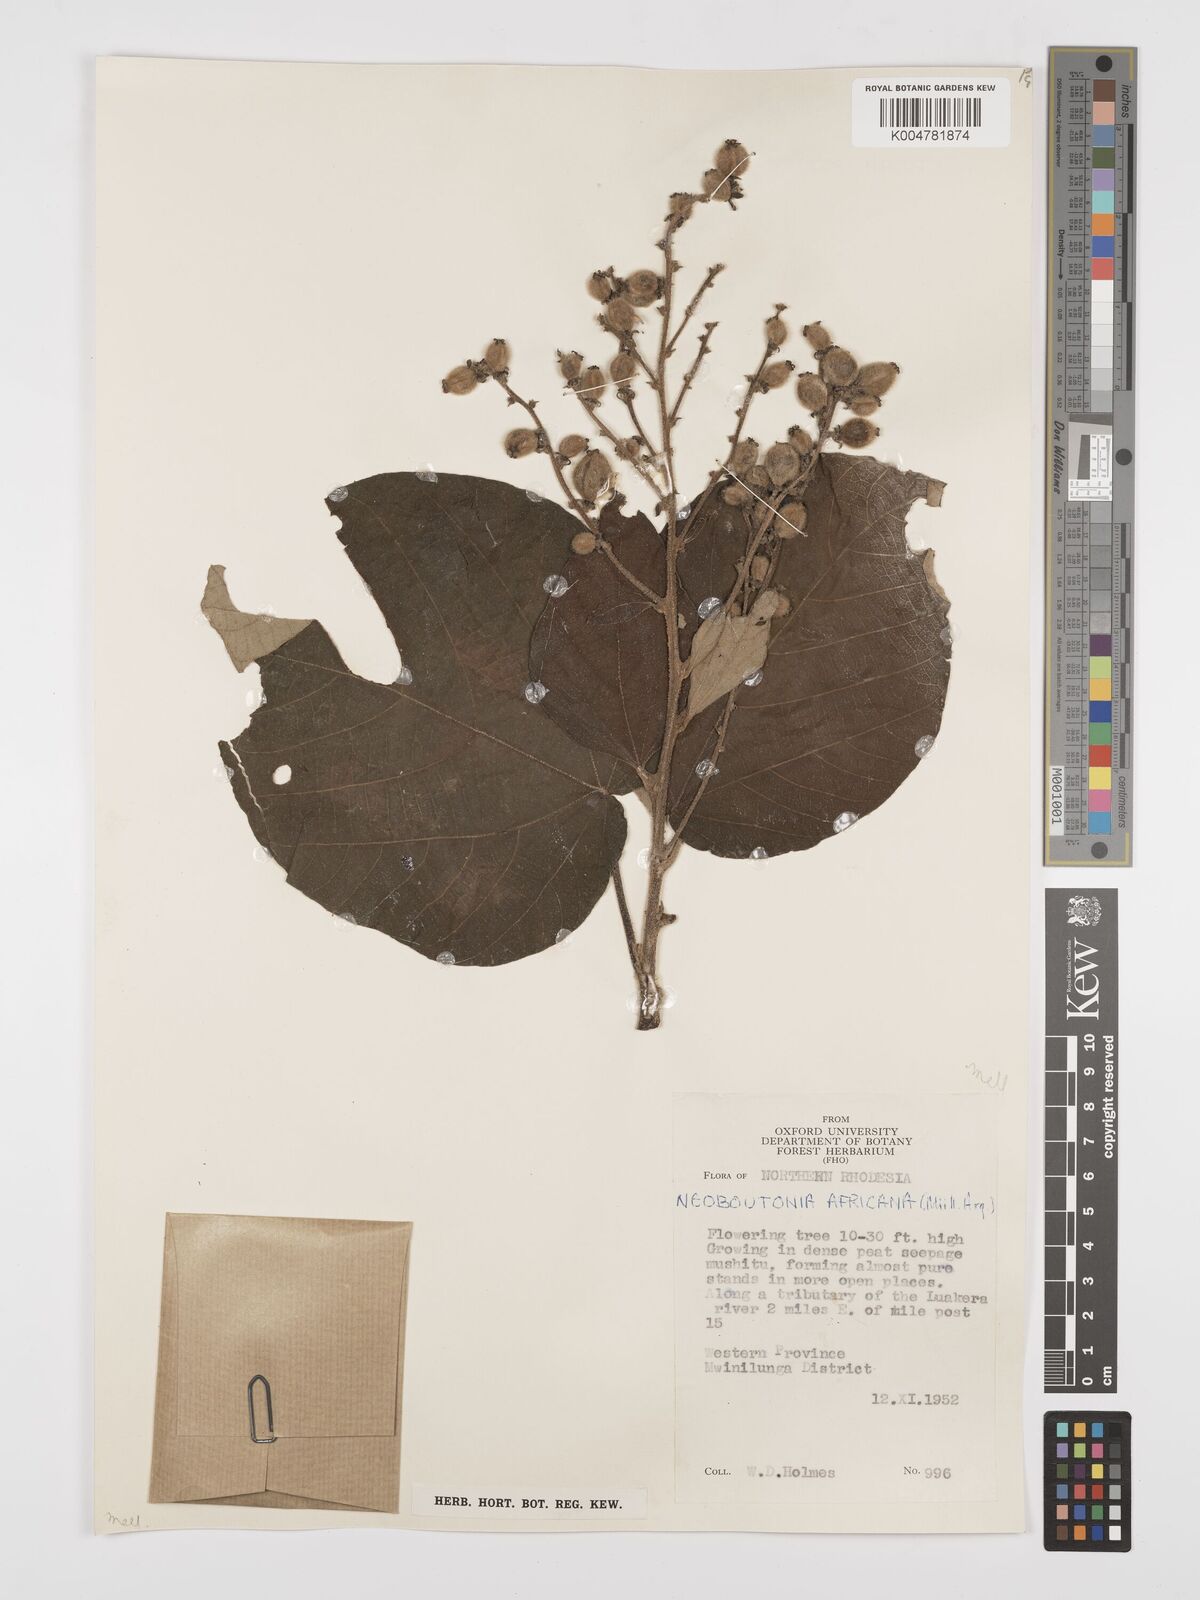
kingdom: Plantae
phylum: Tracheophyta
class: Magnoliopsida
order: Malpighiales
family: Euphorbiaceae
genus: Neoboutonia
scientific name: Neoboutonia melleri
